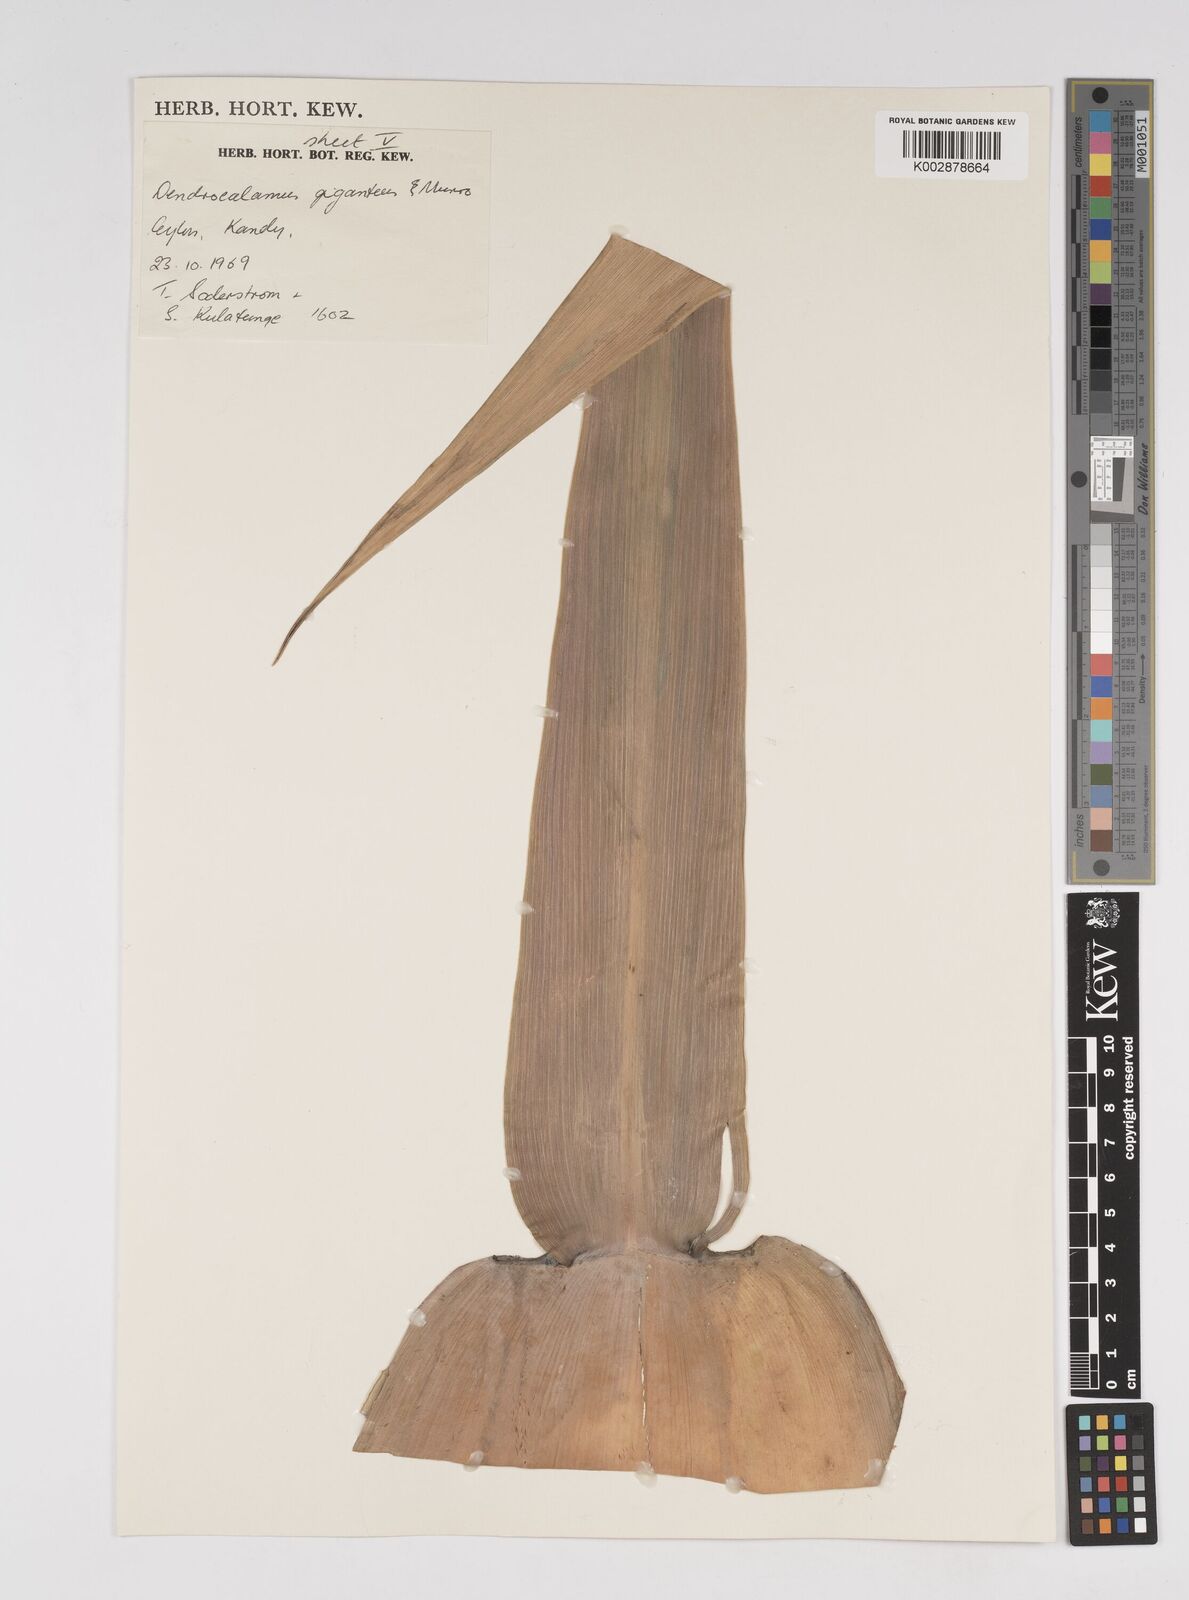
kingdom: Plantae
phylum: Tracheophyta
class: Liliopsida
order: Poales
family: Poaceae
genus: Dendrocalamus
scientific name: Dendrocalamus giganteus
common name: Giant bamboo
